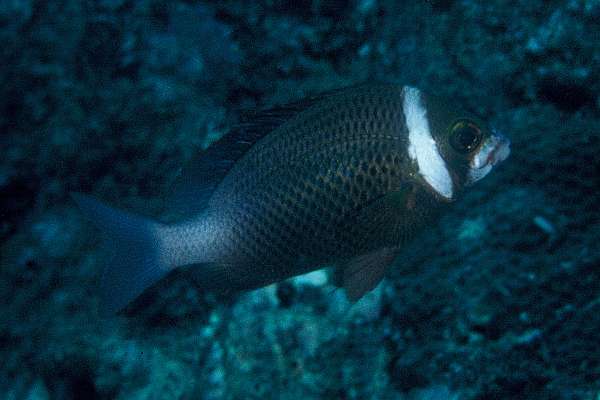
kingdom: Animalia
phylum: Chordata
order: Perciformes
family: Nemipteridae
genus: Scolopsis
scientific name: Scolopsis vosmeri
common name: Whitecheek monocle bream
